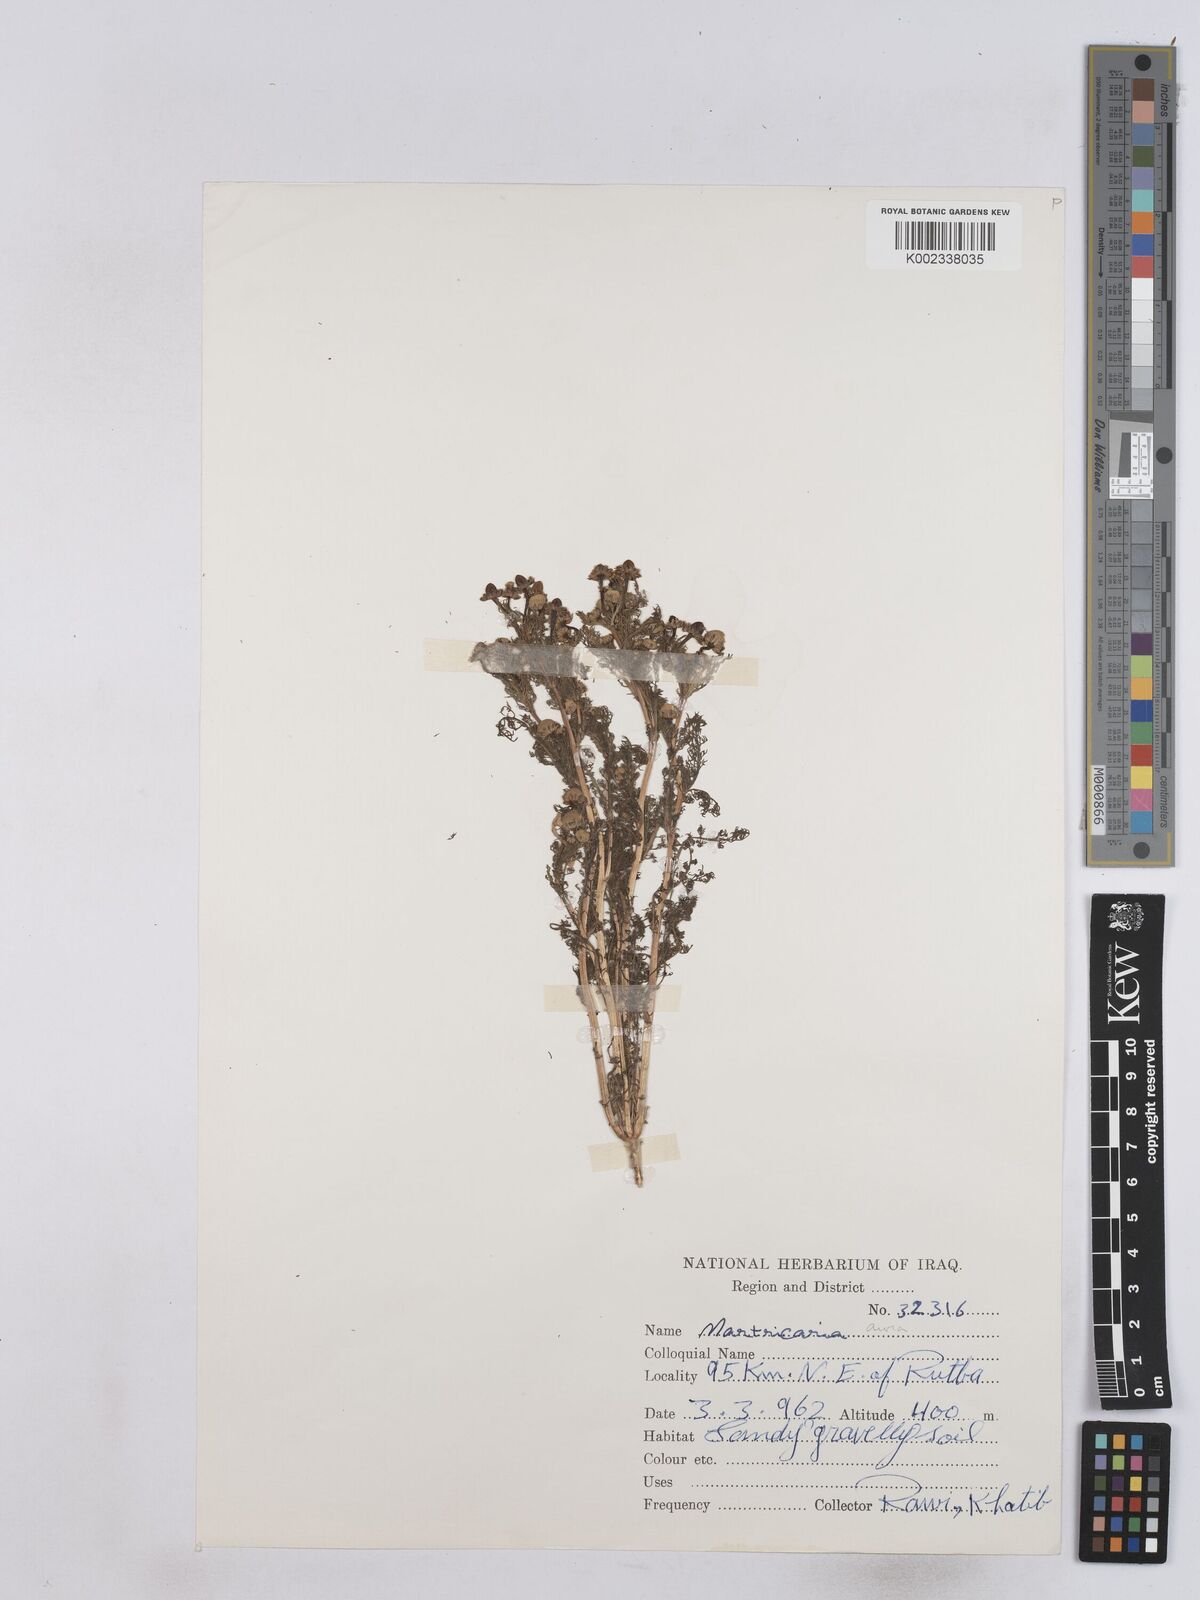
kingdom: Plantae
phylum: Tracheophyta
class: Magnoliopsida
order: Asterales
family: Asteraceae
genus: Matricaria
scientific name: Matricaria aurea
